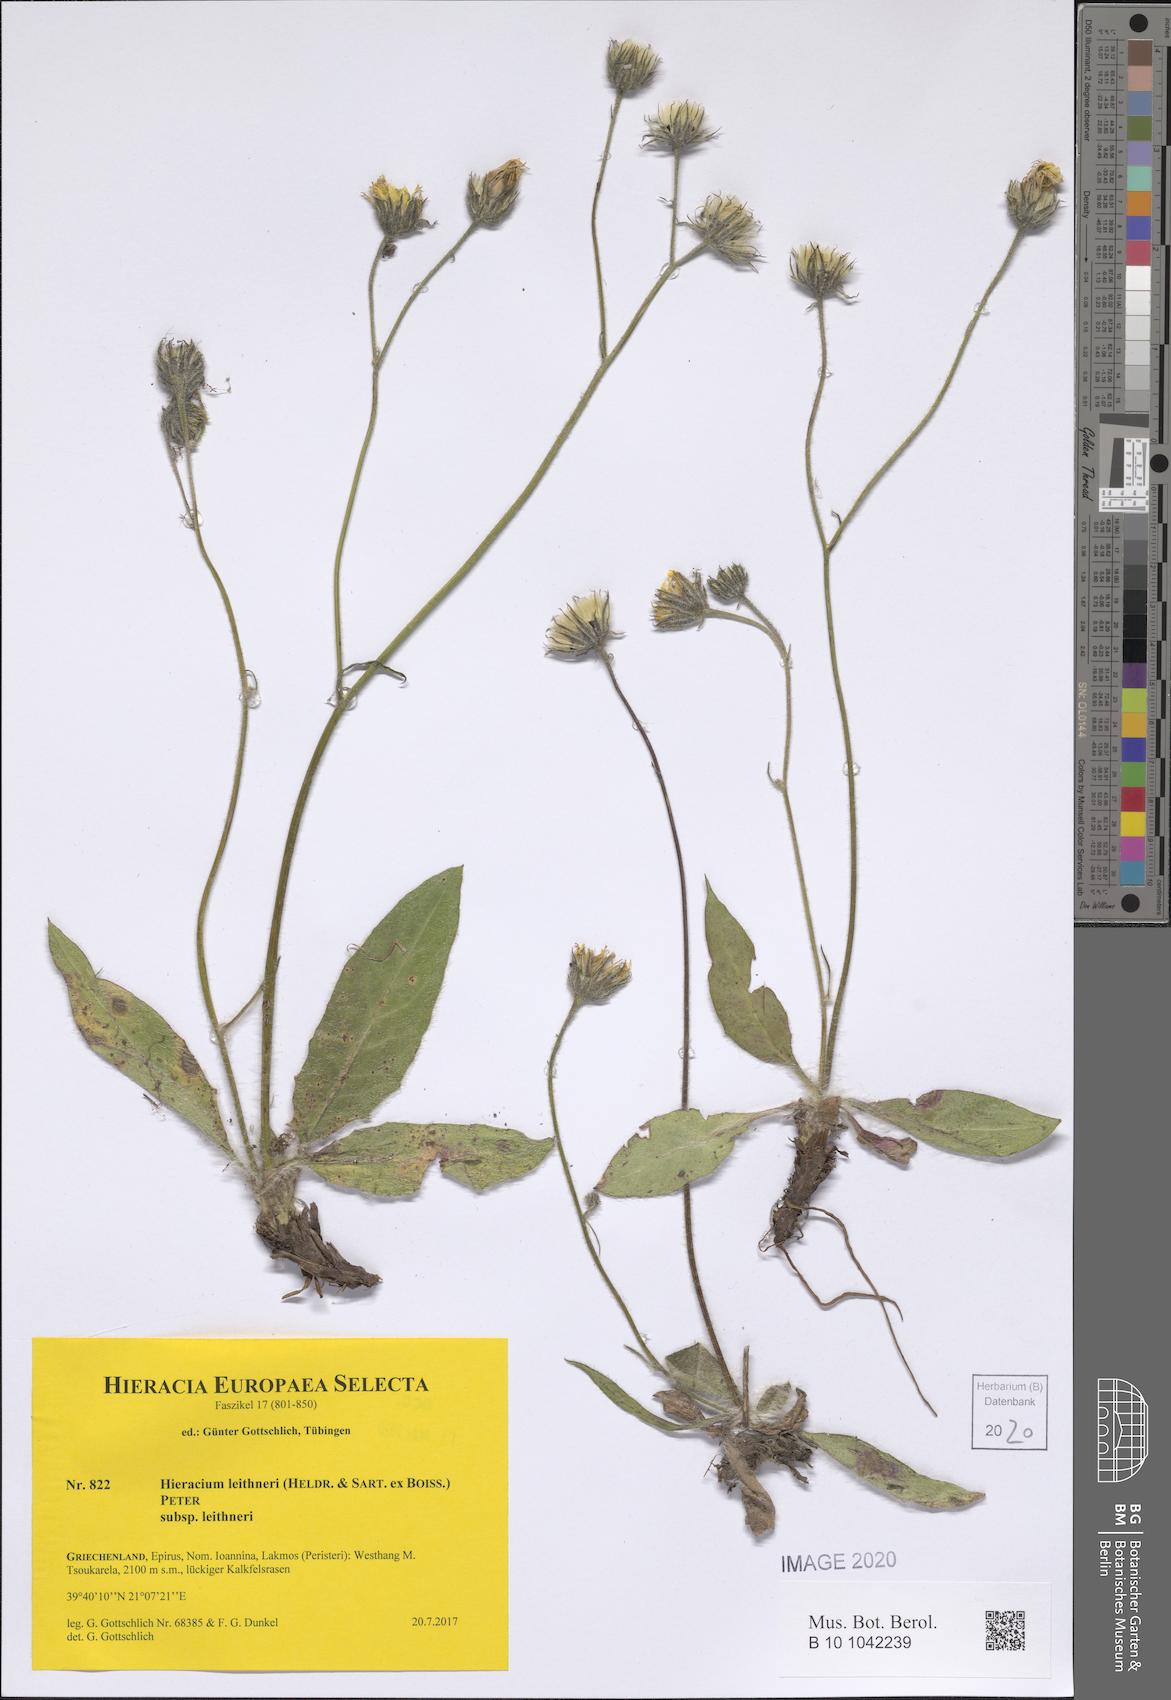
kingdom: Plantae
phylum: Tracheophyta
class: Magnoliopsida
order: Asterales
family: Asteraceae
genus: Hieracium
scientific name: Hieracium lazistanum
